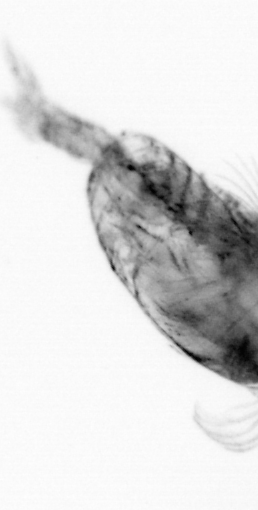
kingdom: Animalia
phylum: Arthropoda
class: Copepoda
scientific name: Copepoda
